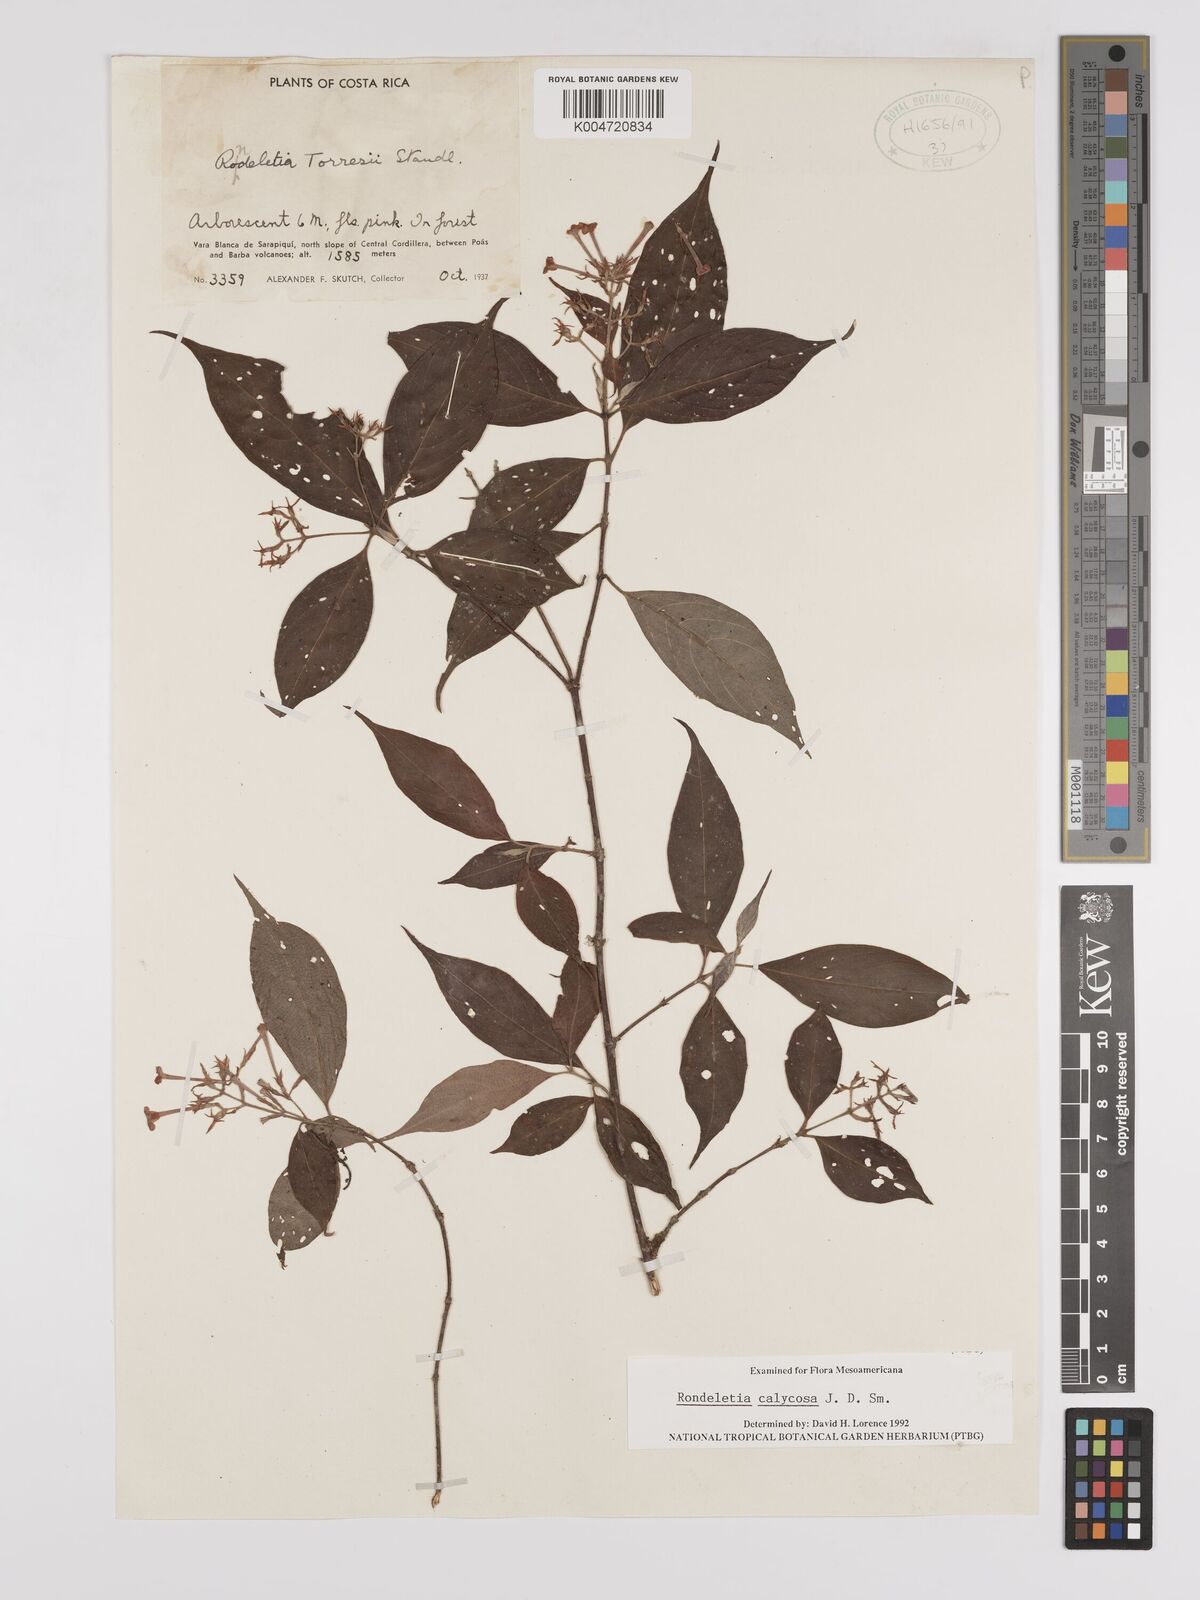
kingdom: Plantae
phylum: Tracheophyta
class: Magnoliopsida
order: Gentianales
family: Rubiaceae
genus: Arachnothryx
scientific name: Arachnothryx calycosa
